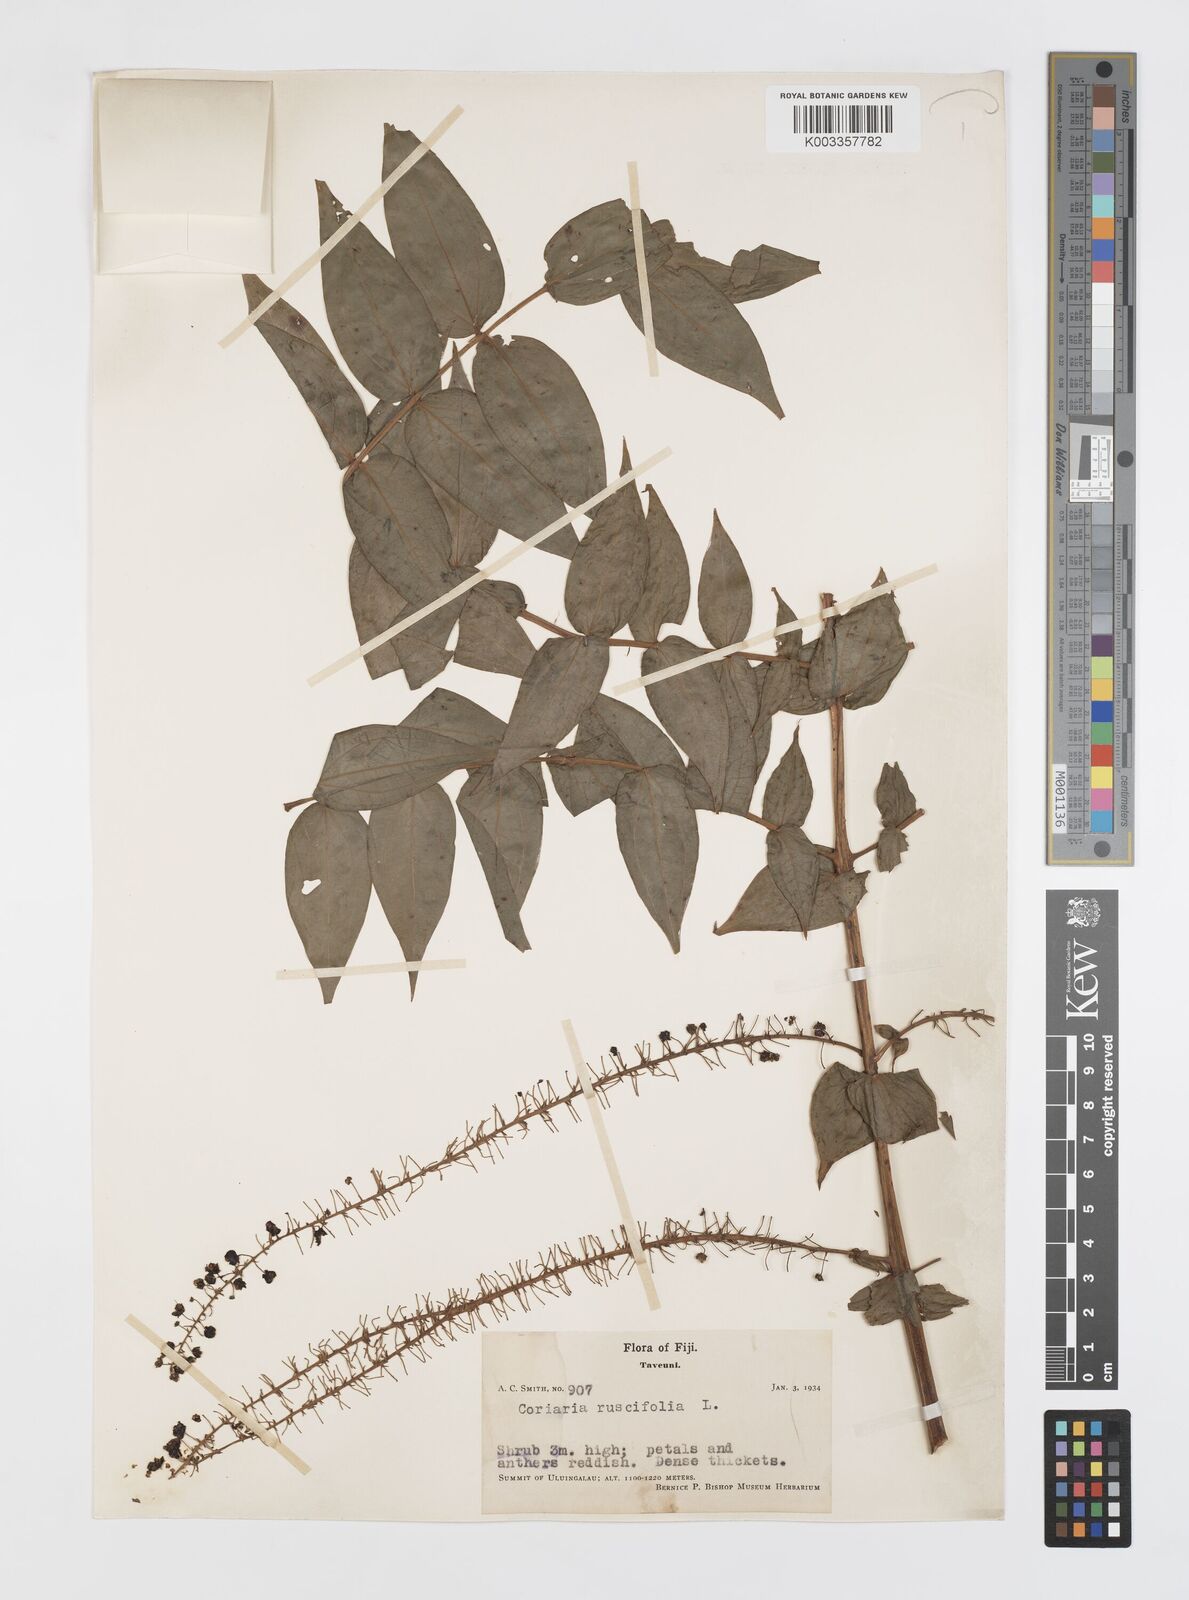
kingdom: Plantae
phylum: Tracheophyta
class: Magnoliopsida
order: Cucurbitales
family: Coriariaceae
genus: Coriaria
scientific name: Coriaria ruscifolia
